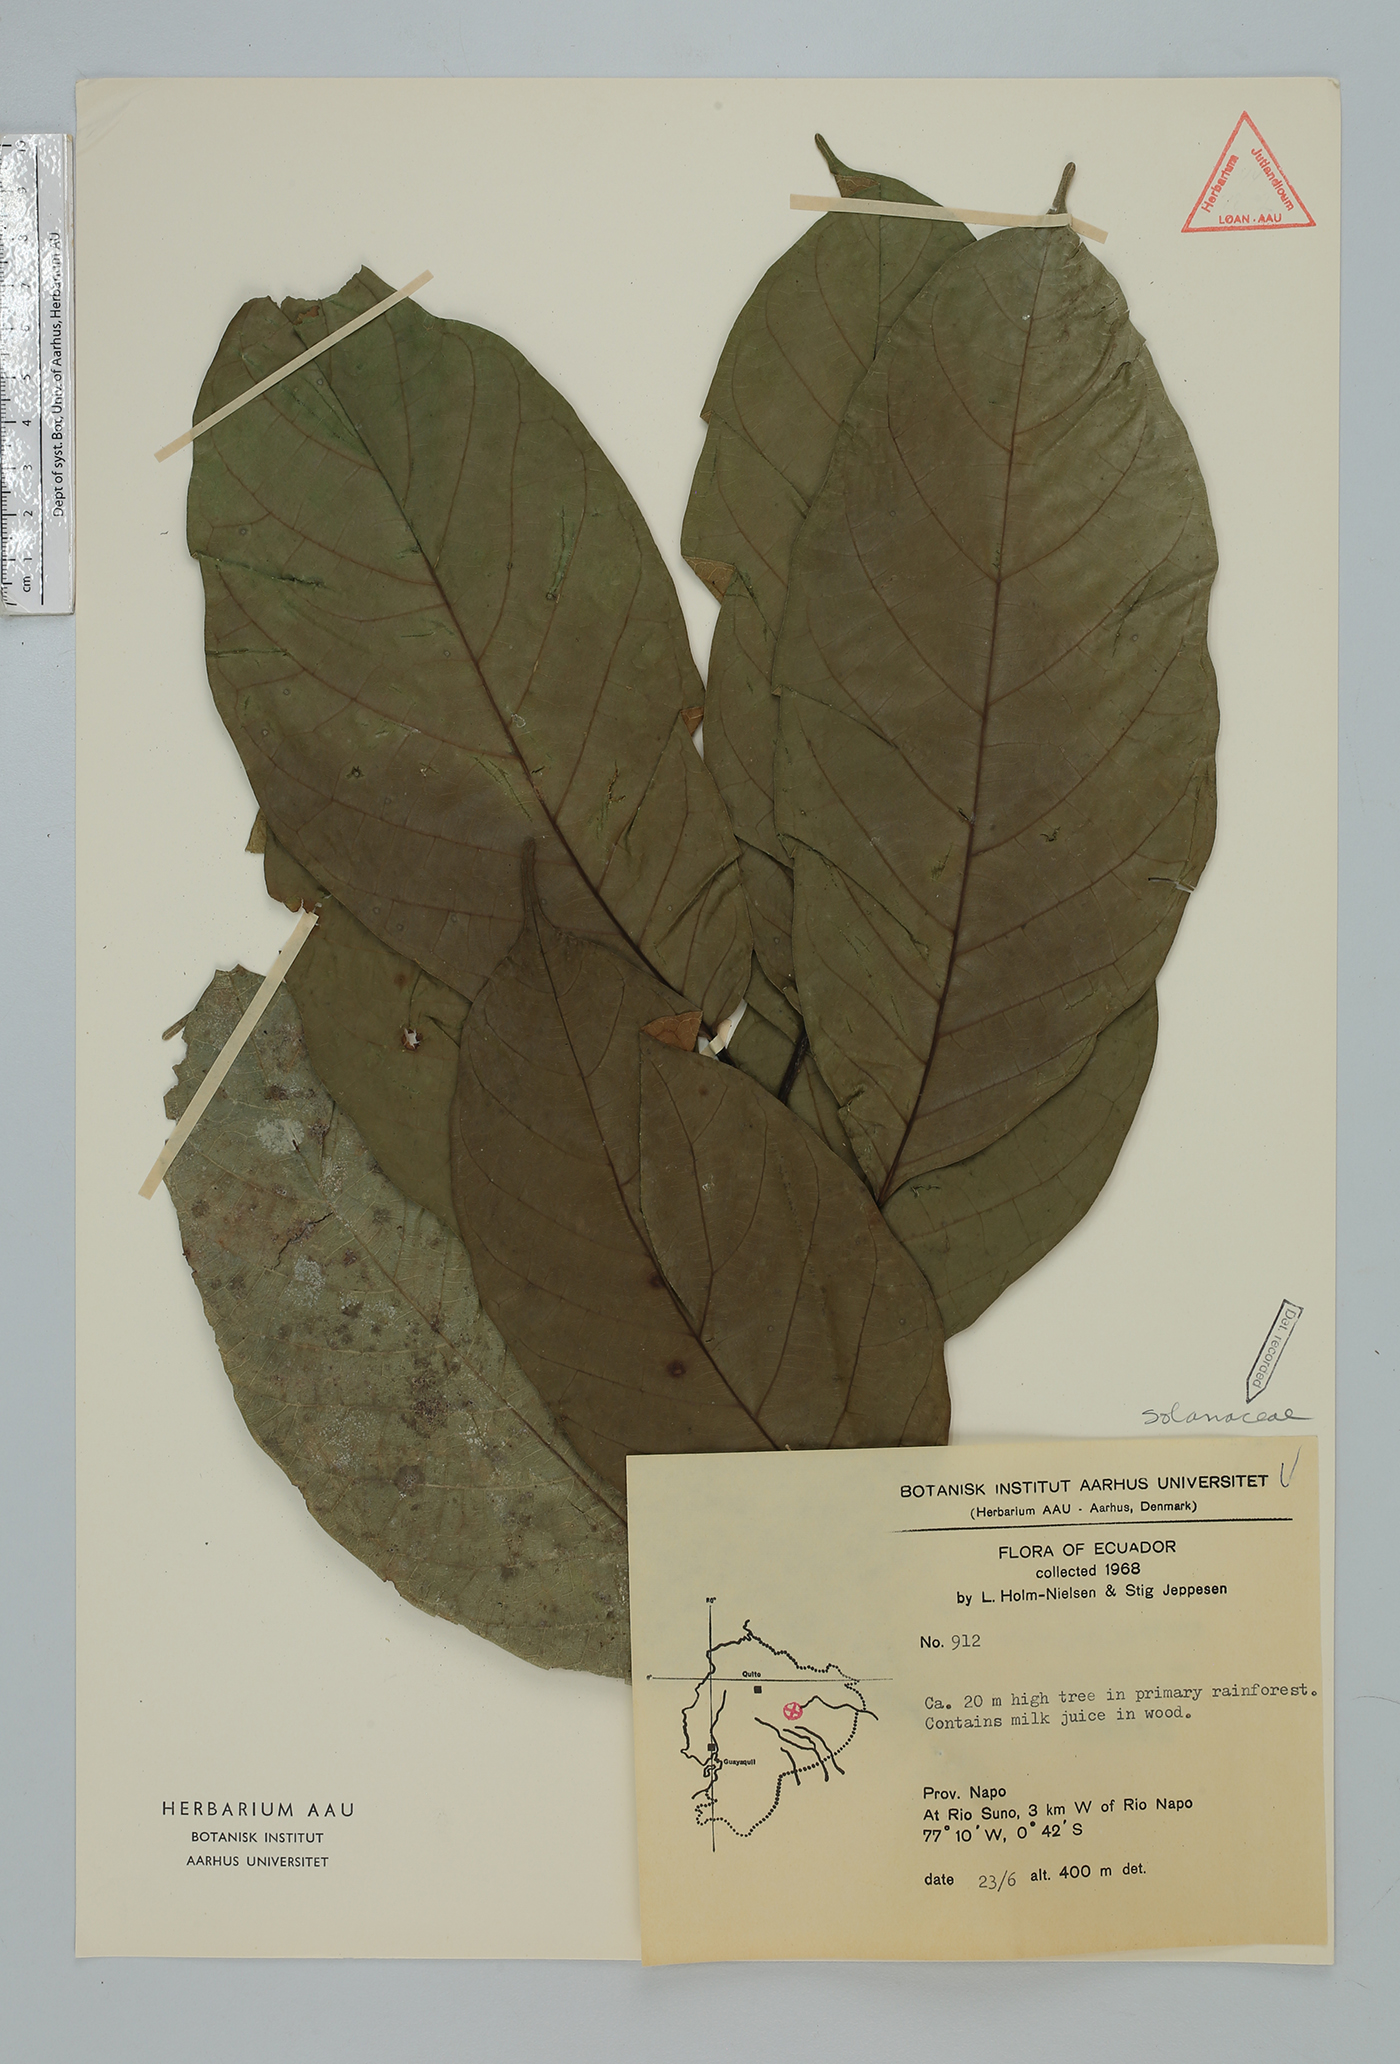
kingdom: Plantae
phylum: Tracheophyta
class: Magnoliopsida
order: Solanales
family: Solanaceae
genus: Solanum
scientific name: Solanum
